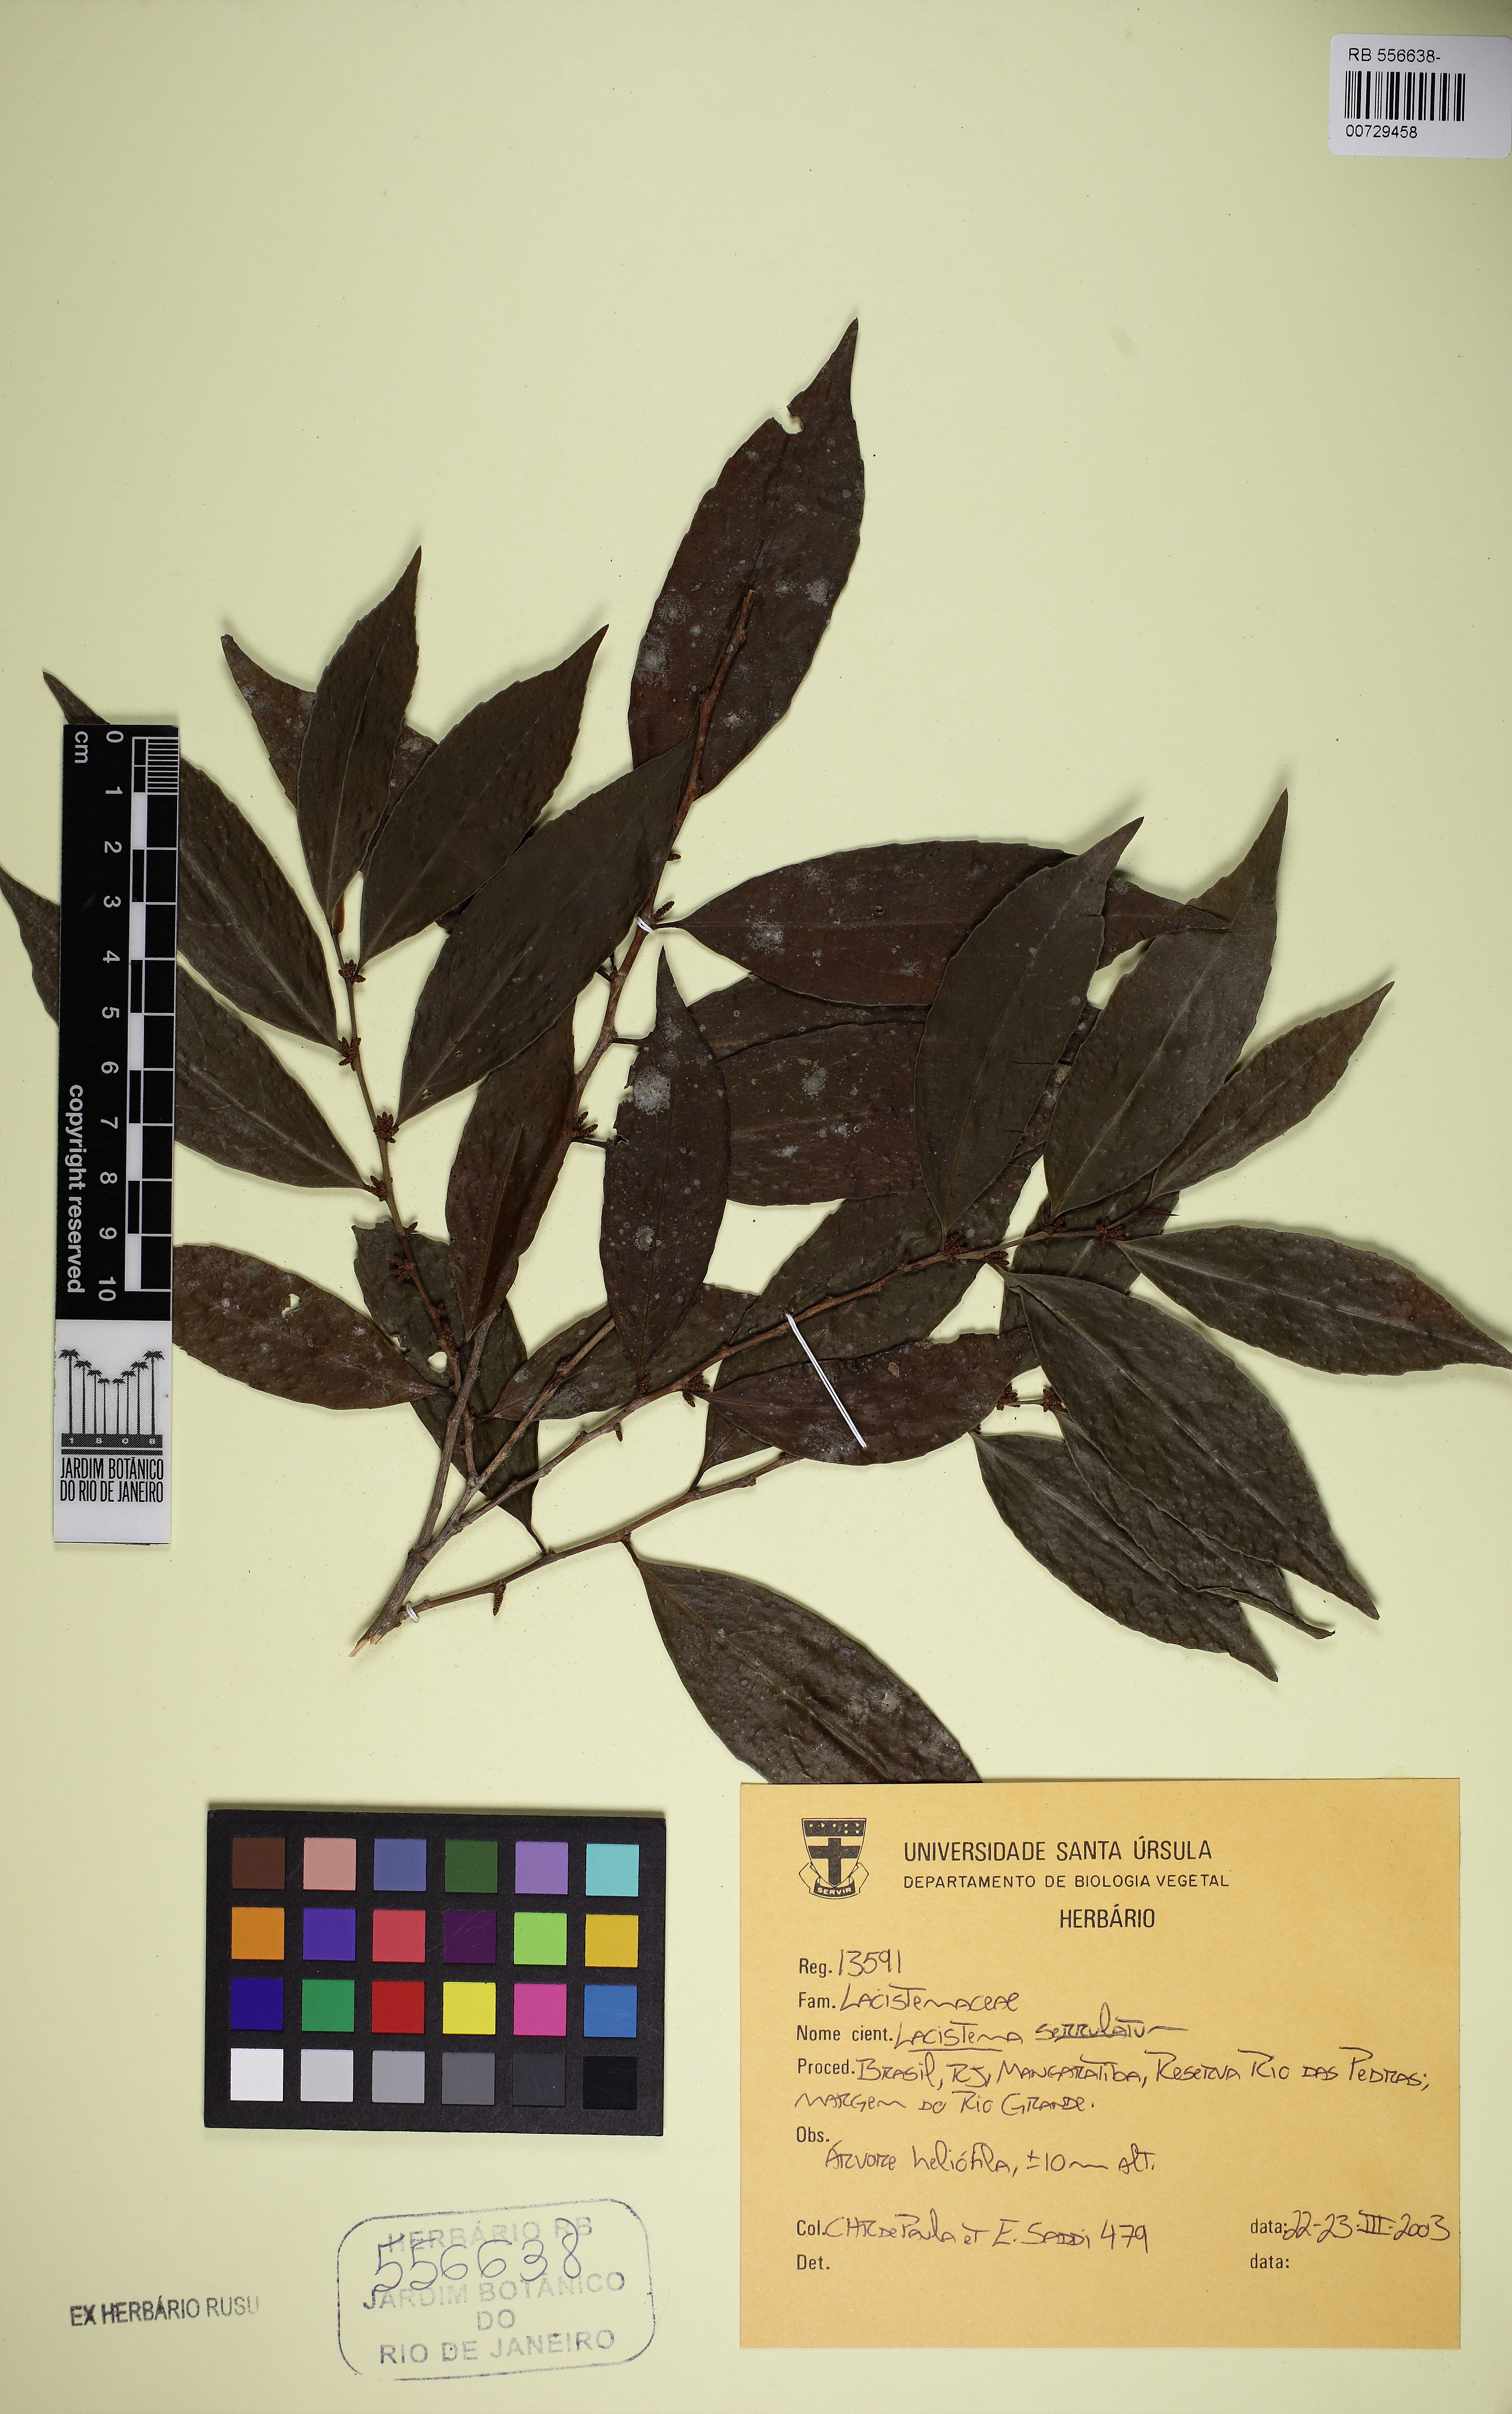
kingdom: Plantae
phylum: Tracheophyta
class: Magnoliopsida
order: Malpighiales
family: Lacistemataceae
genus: Lacistema
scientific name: Lacistema serrulatum
